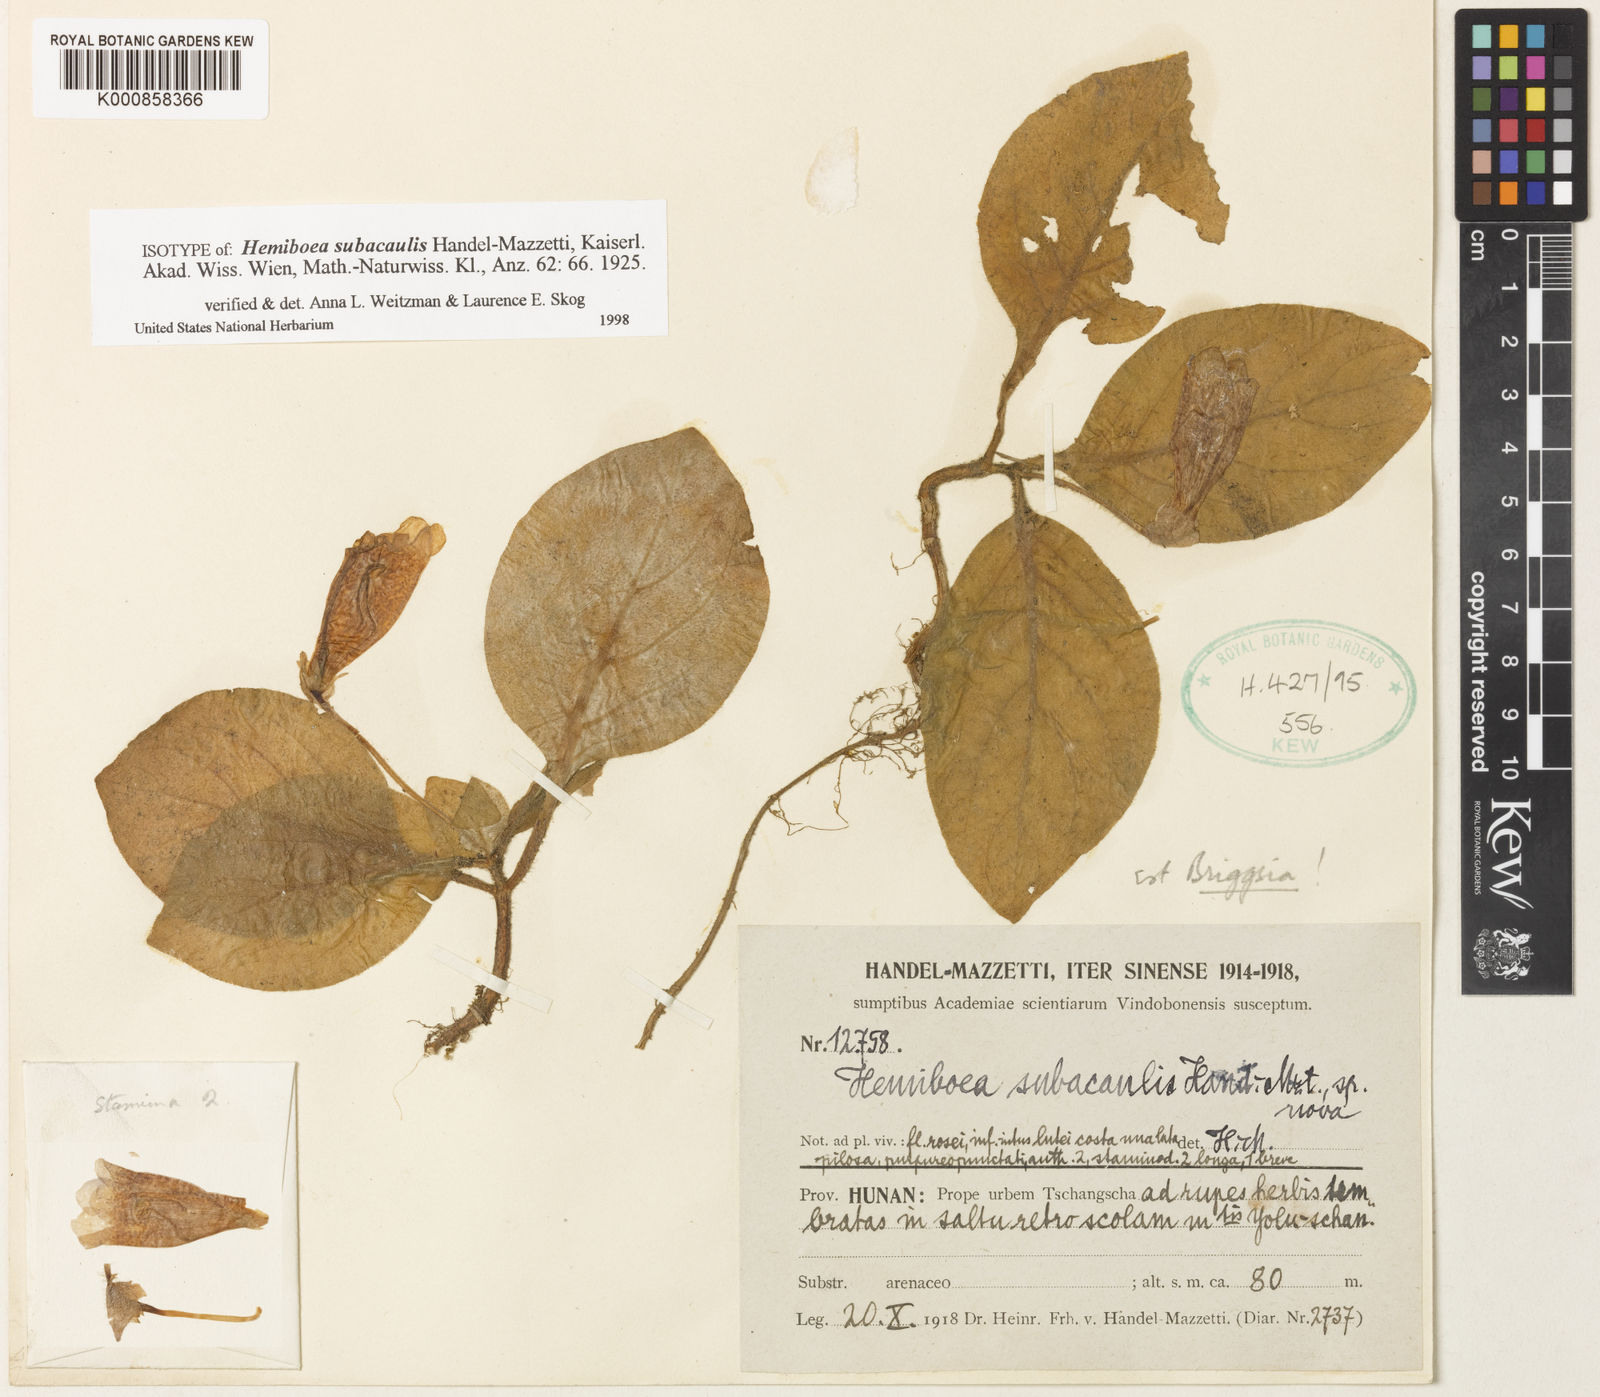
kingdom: Plantae
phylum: Tracheophyta
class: Magnoliopsida
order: Lamiales
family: Gesneriaceae
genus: Hemiboea
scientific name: Hemiboea subacaulis
